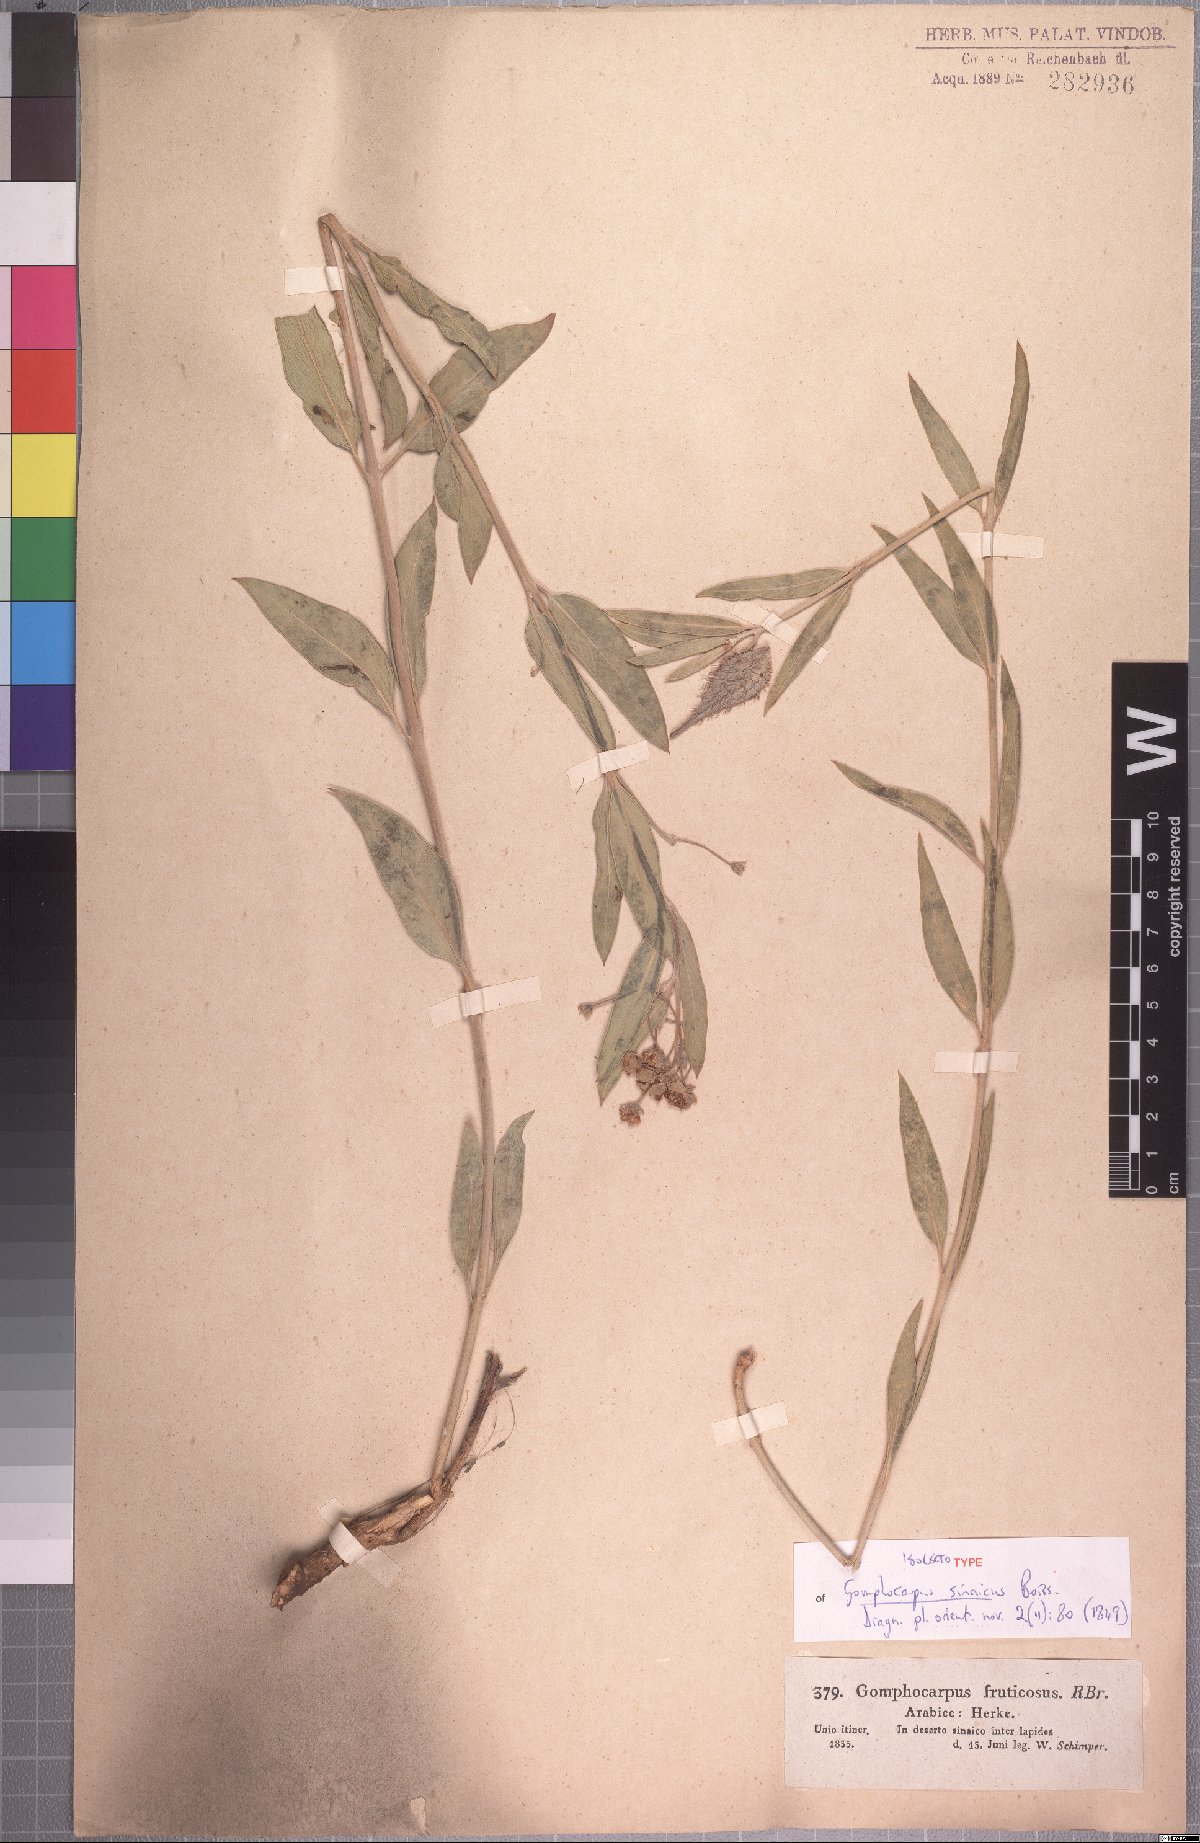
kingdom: Plantae
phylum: Tracheophyta
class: Magnoliopsida
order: Gentianales
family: Apocynaceae
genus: Gomphocarpus
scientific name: Gomphocarpus sinaicus
